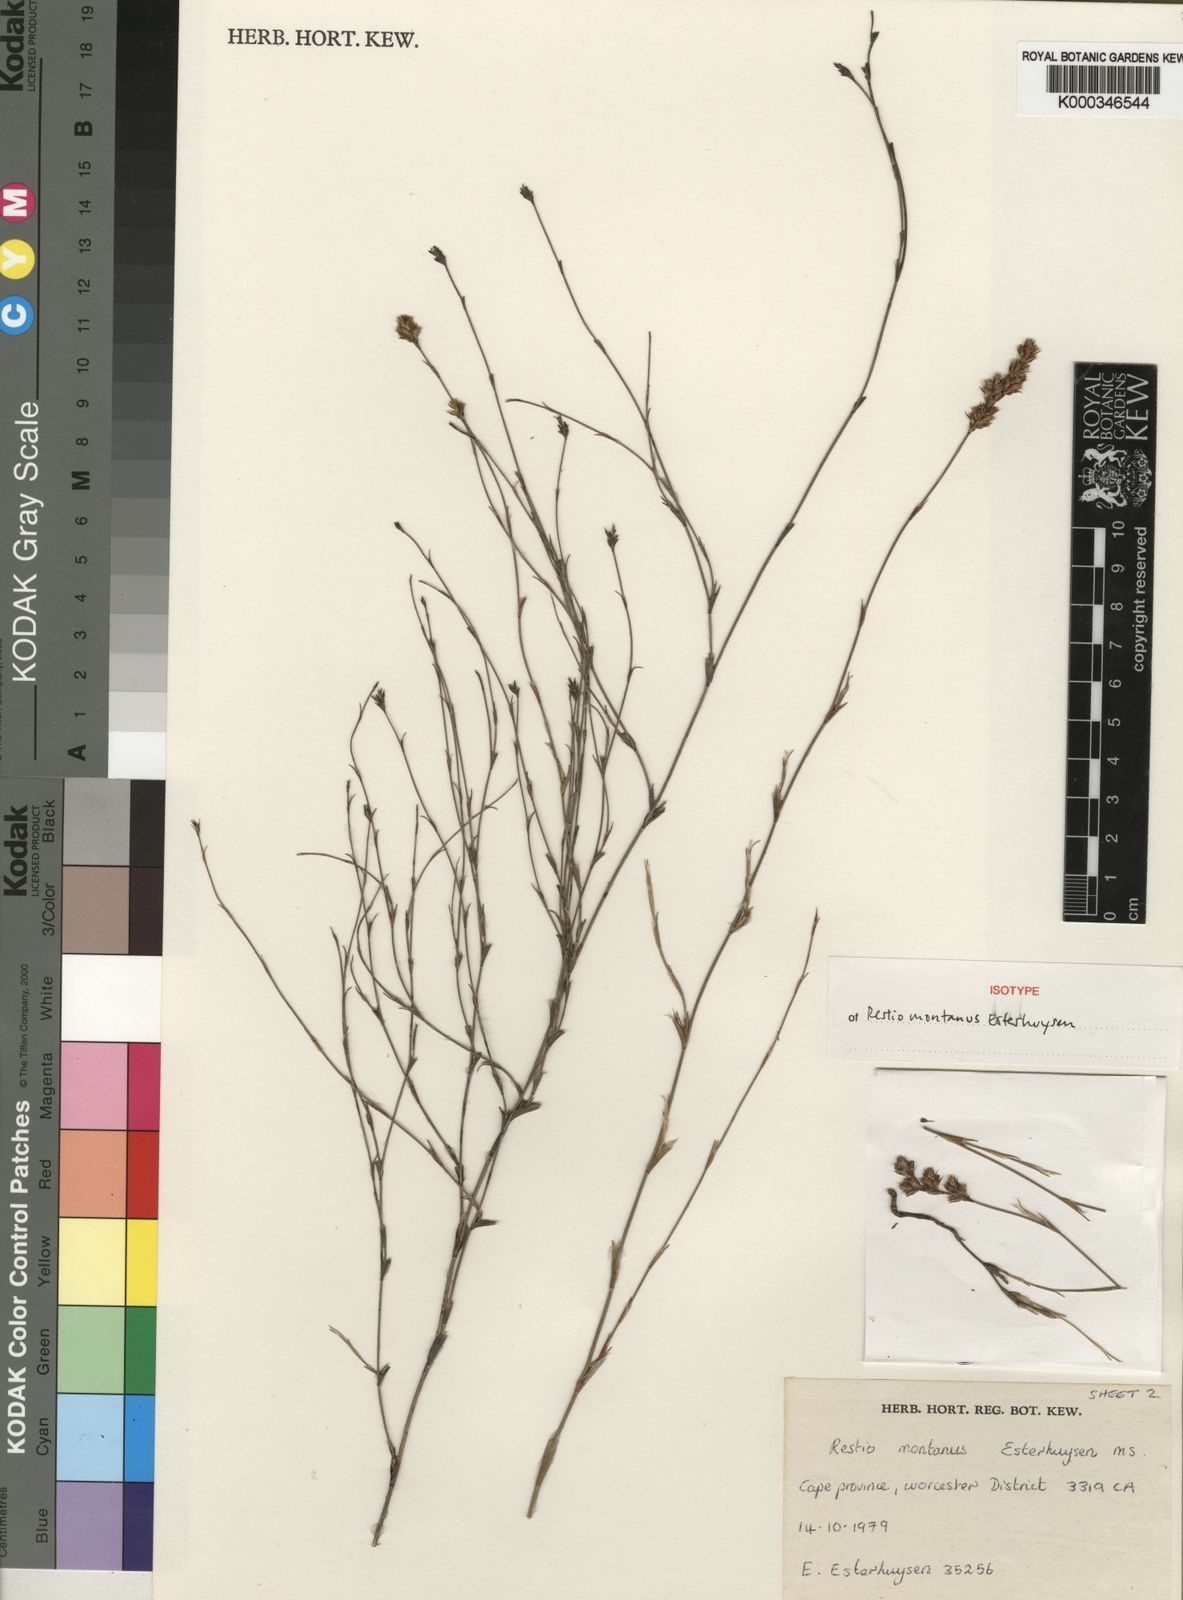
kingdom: Plantae
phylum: Tracheophyta
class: Liliopsida
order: Poales
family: Restionaceae
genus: Restio
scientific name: Restio montanus
